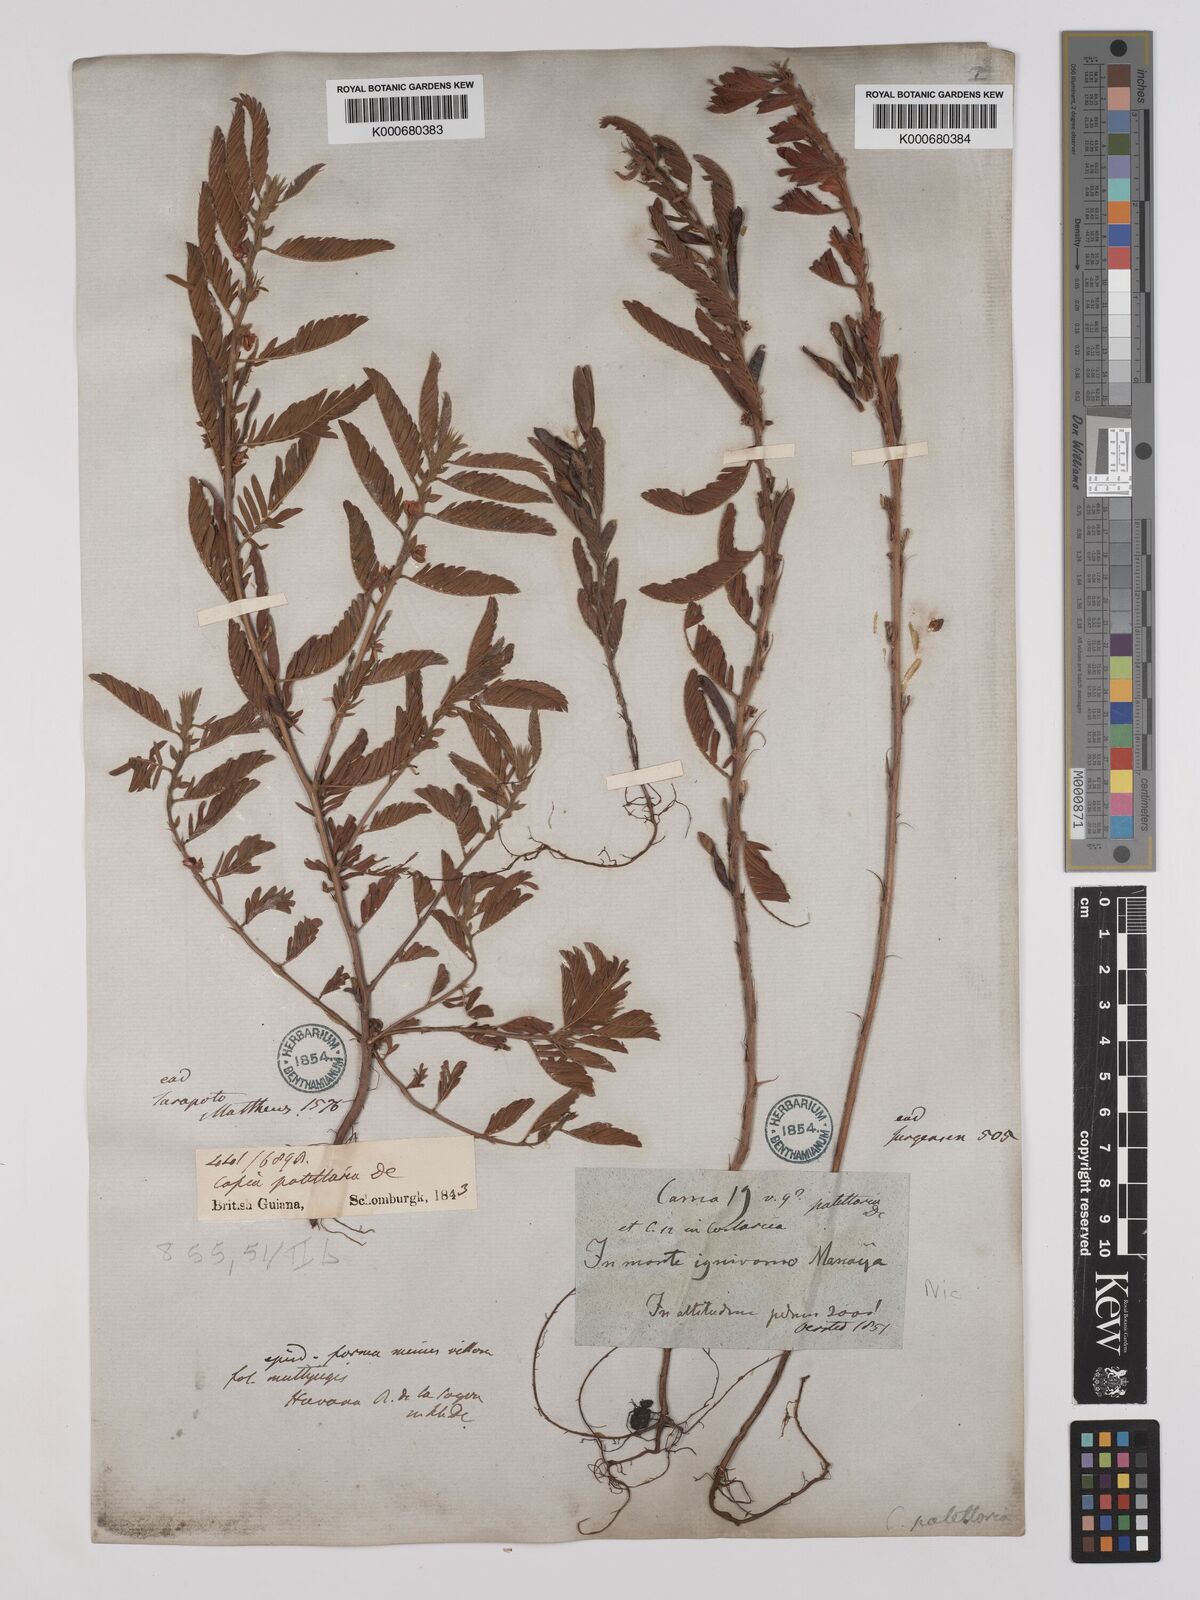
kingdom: Plantae
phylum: Tracheophyta
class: Magnoliopsida
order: Fabales
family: Fabaceae
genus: Chamaecrista
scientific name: Chamaecrista nictitans
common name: Sensitive cassia
